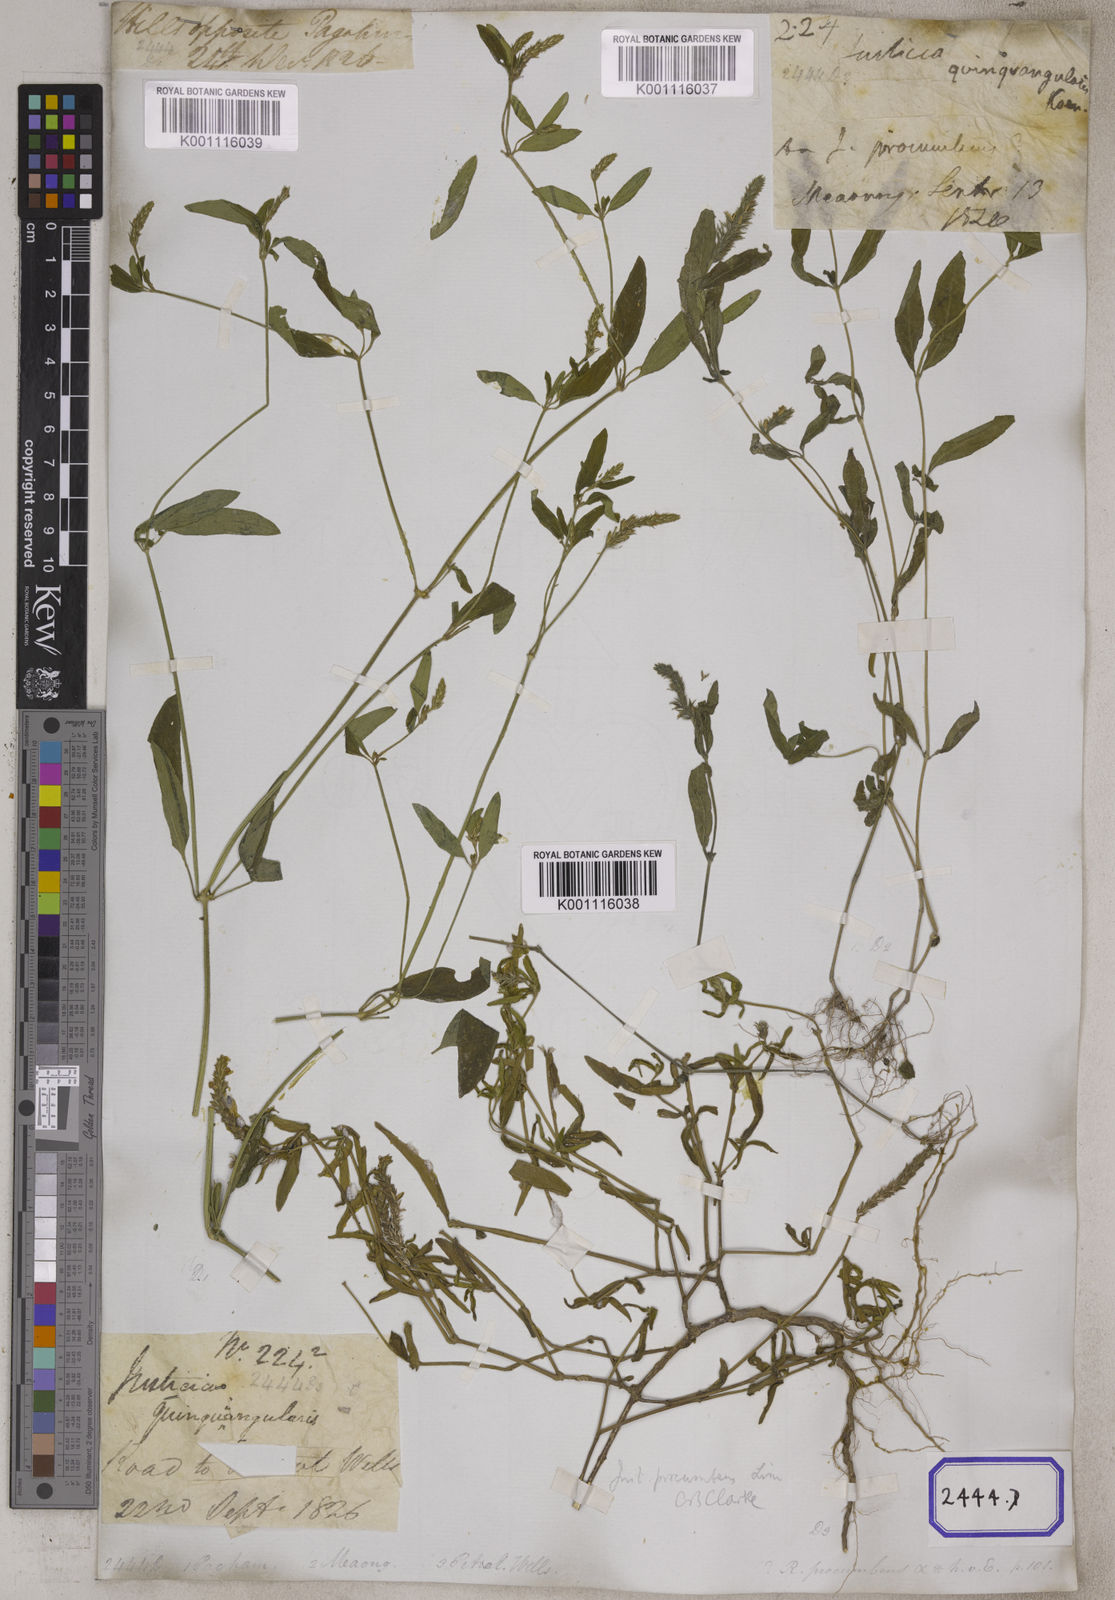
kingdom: Plantae
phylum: Tracheophyta
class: Magnoliopsida
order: Lamiales
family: Acanthaceae
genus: Justicia
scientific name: Justicia
